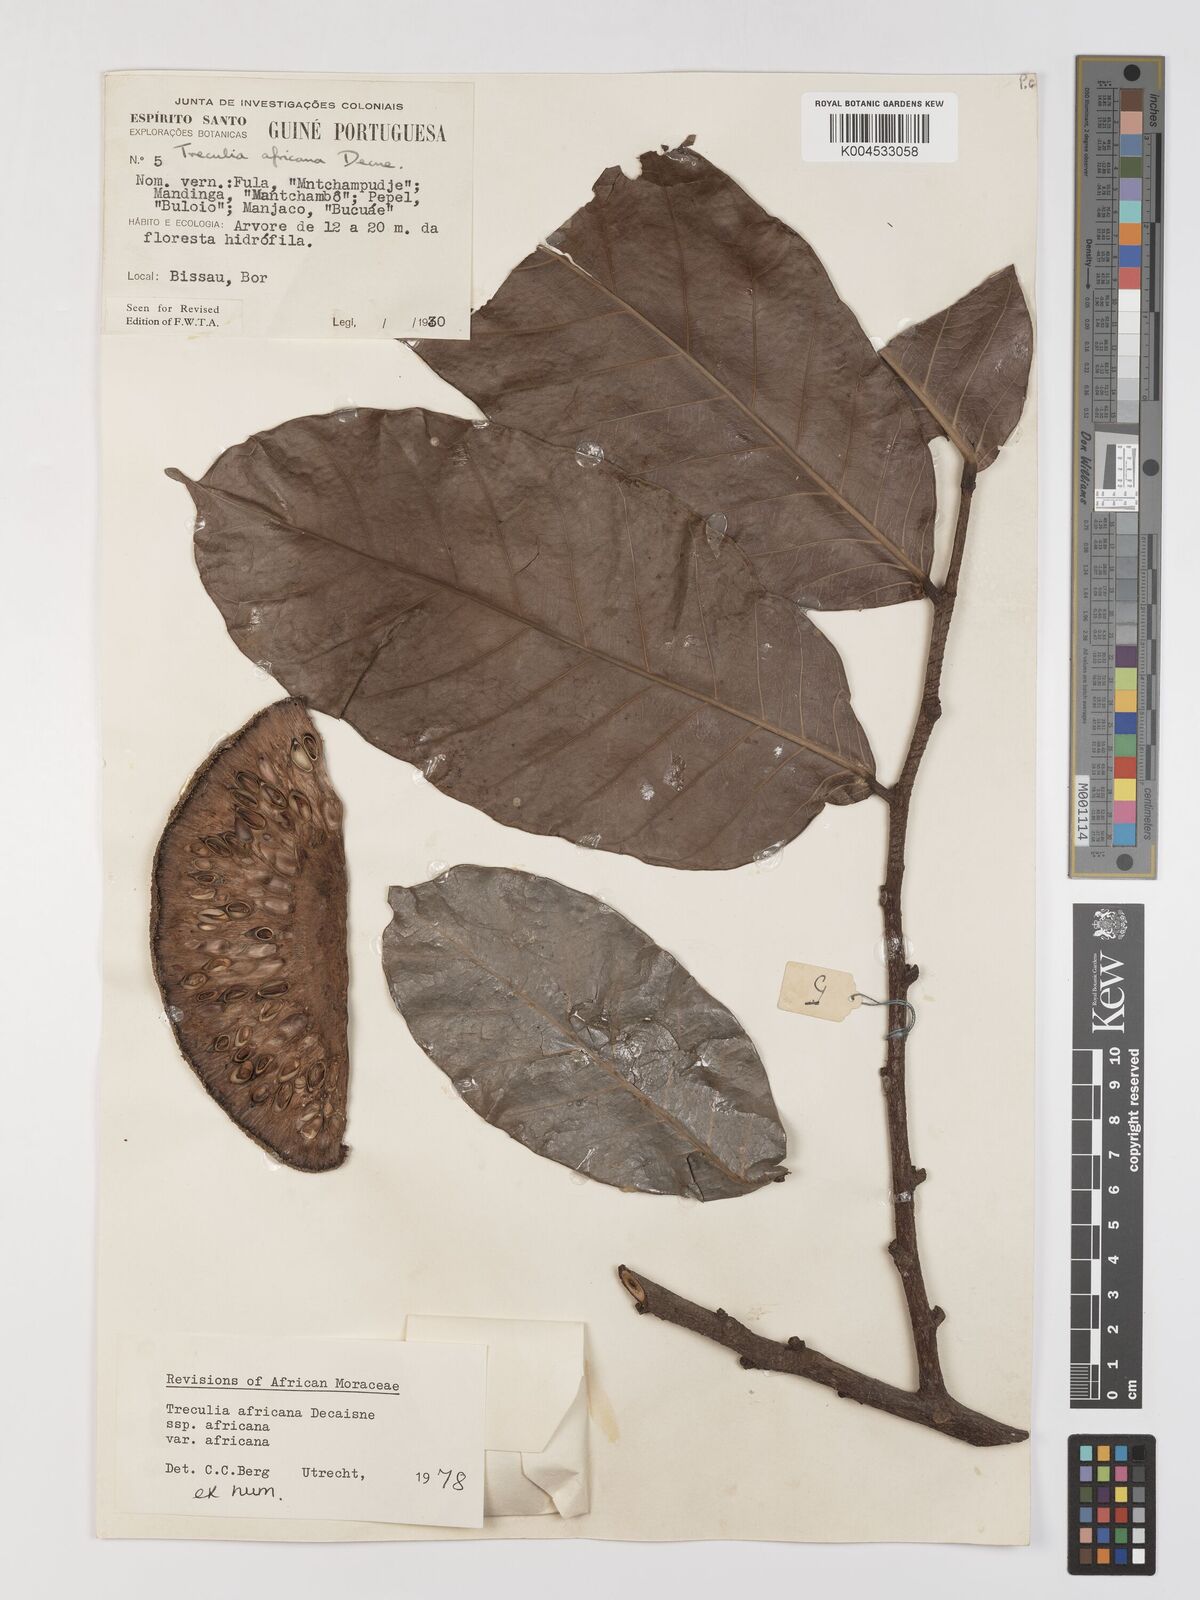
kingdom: Plantae
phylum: Tracheophyta
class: Magnoliopsida
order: Rosales
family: Moraceae
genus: Treculia
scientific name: Treculia africana
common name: African breadfruit
